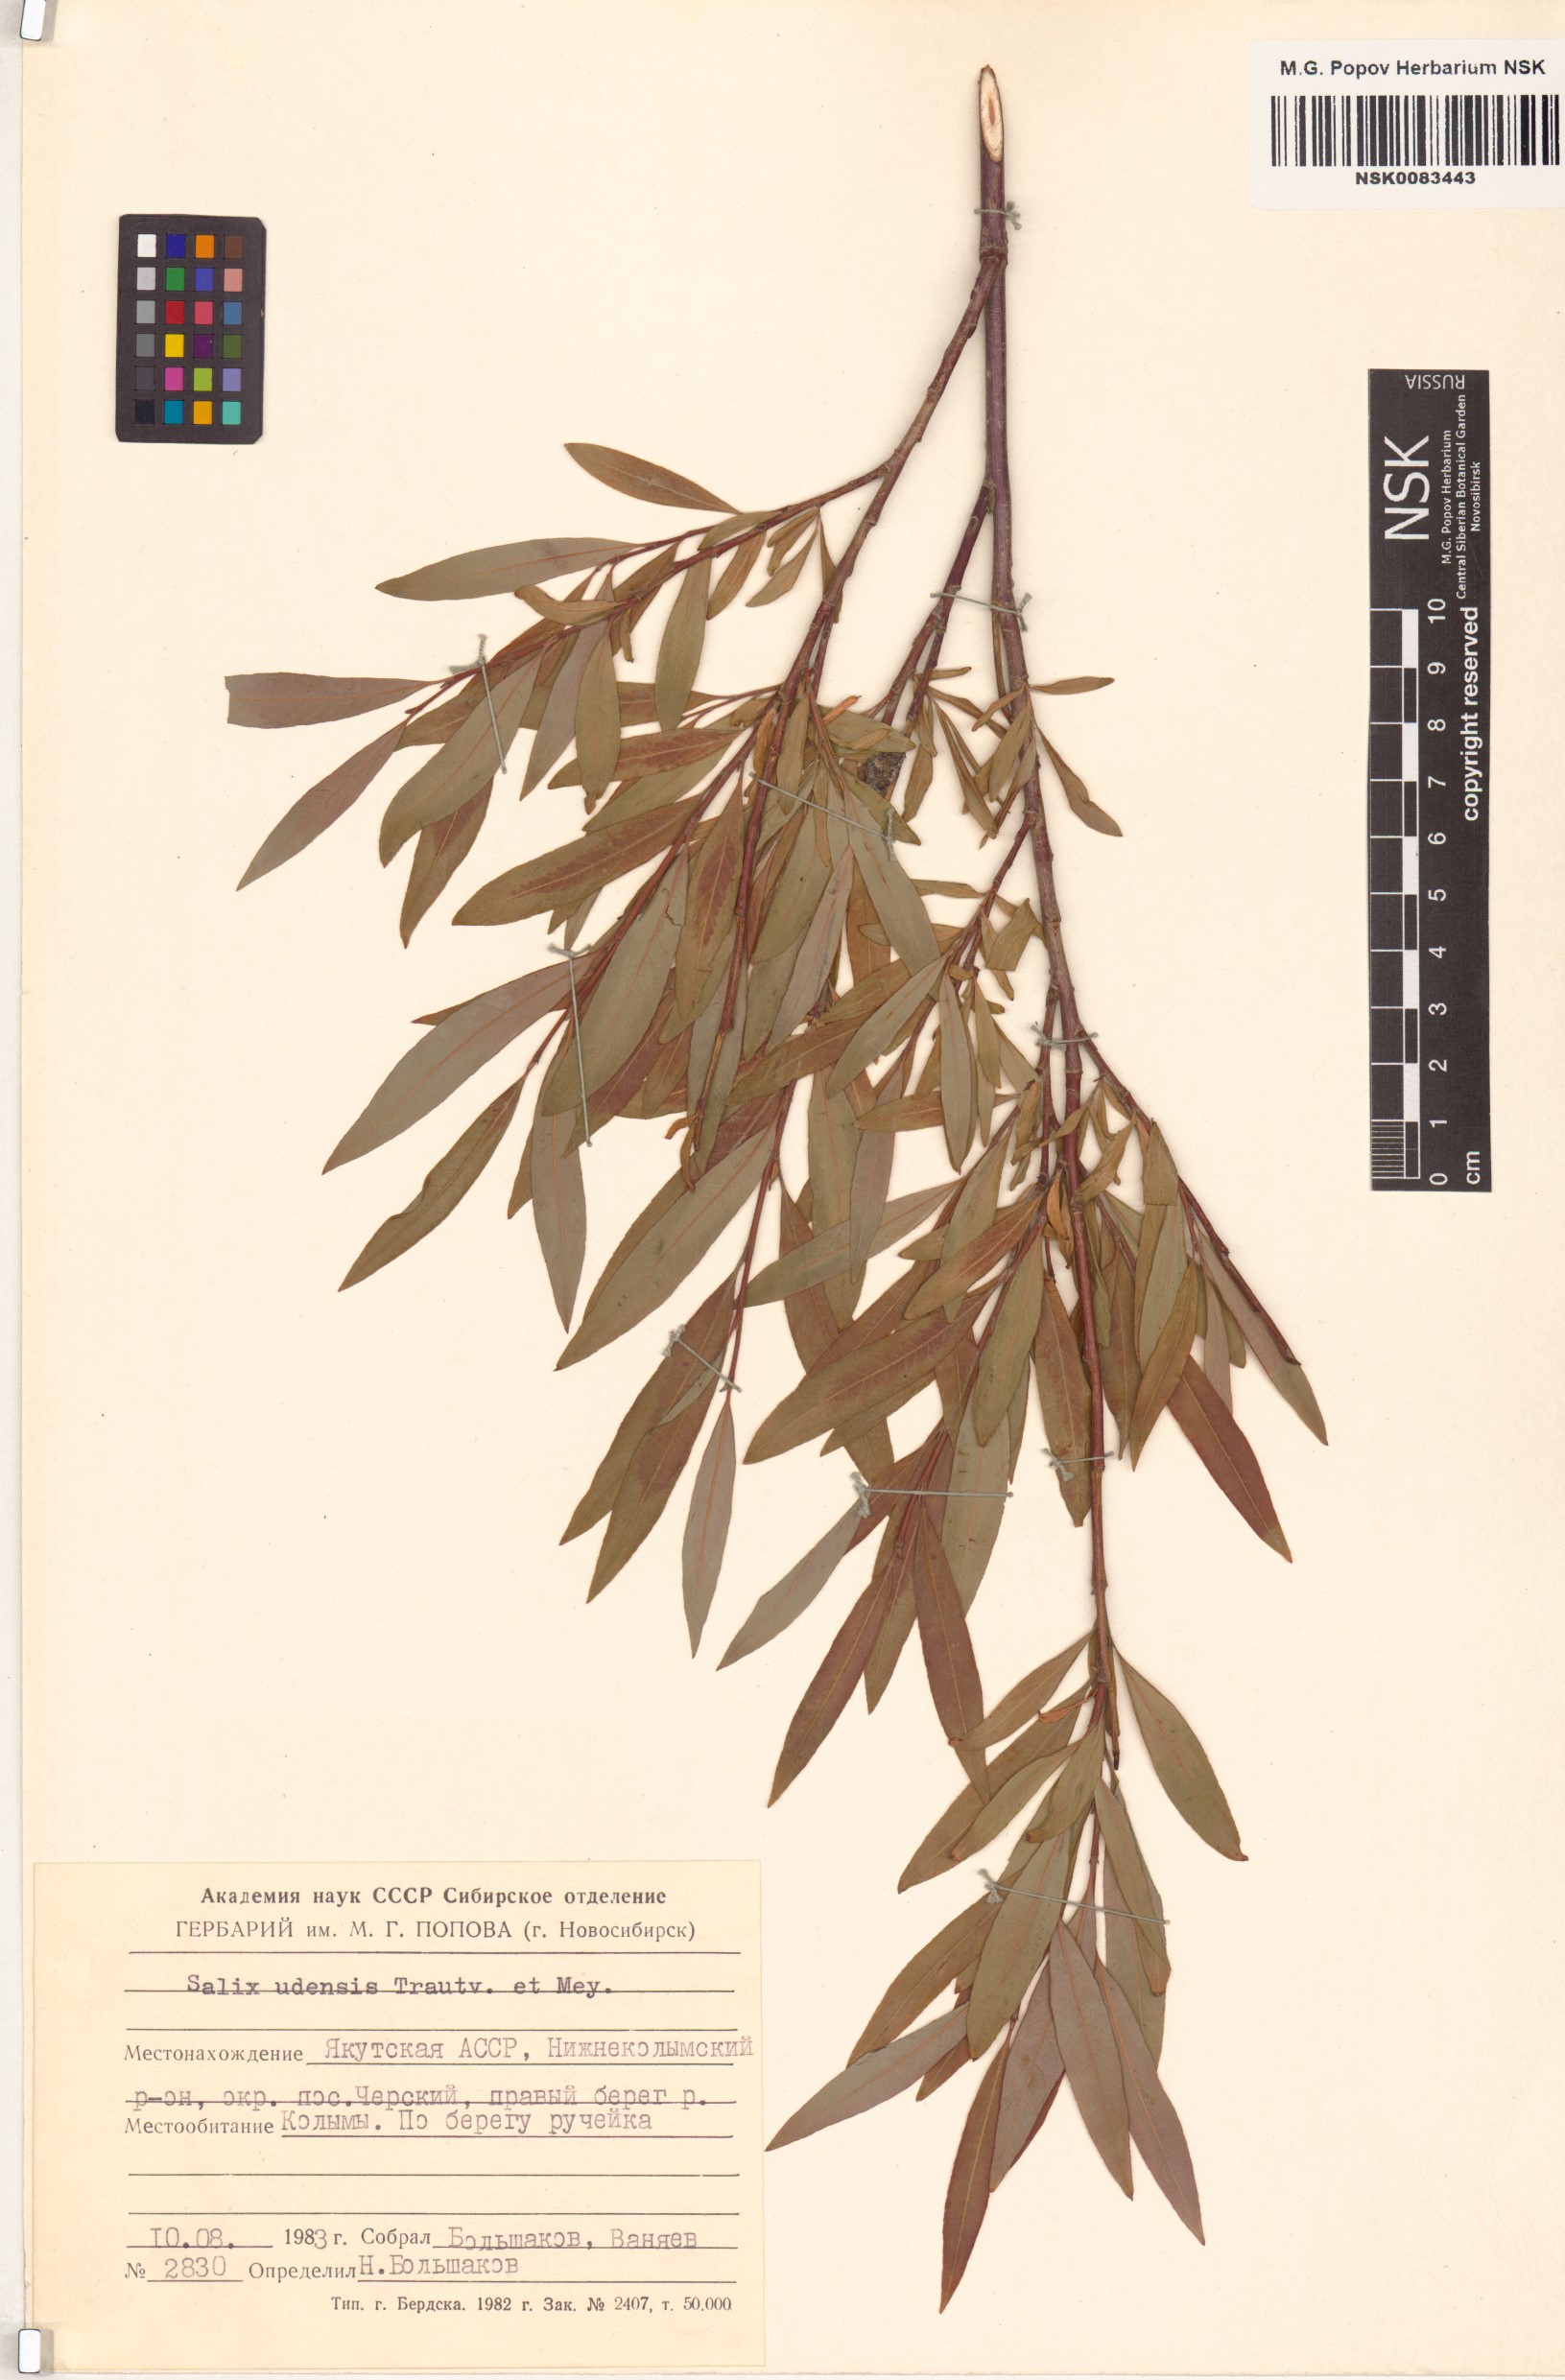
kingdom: Plantae
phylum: Tracheophyta
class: Magnoliopsida
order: Malpighiales
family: Salicaceae
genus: Salix
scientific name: Salix udensis
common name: Sachalin willow
